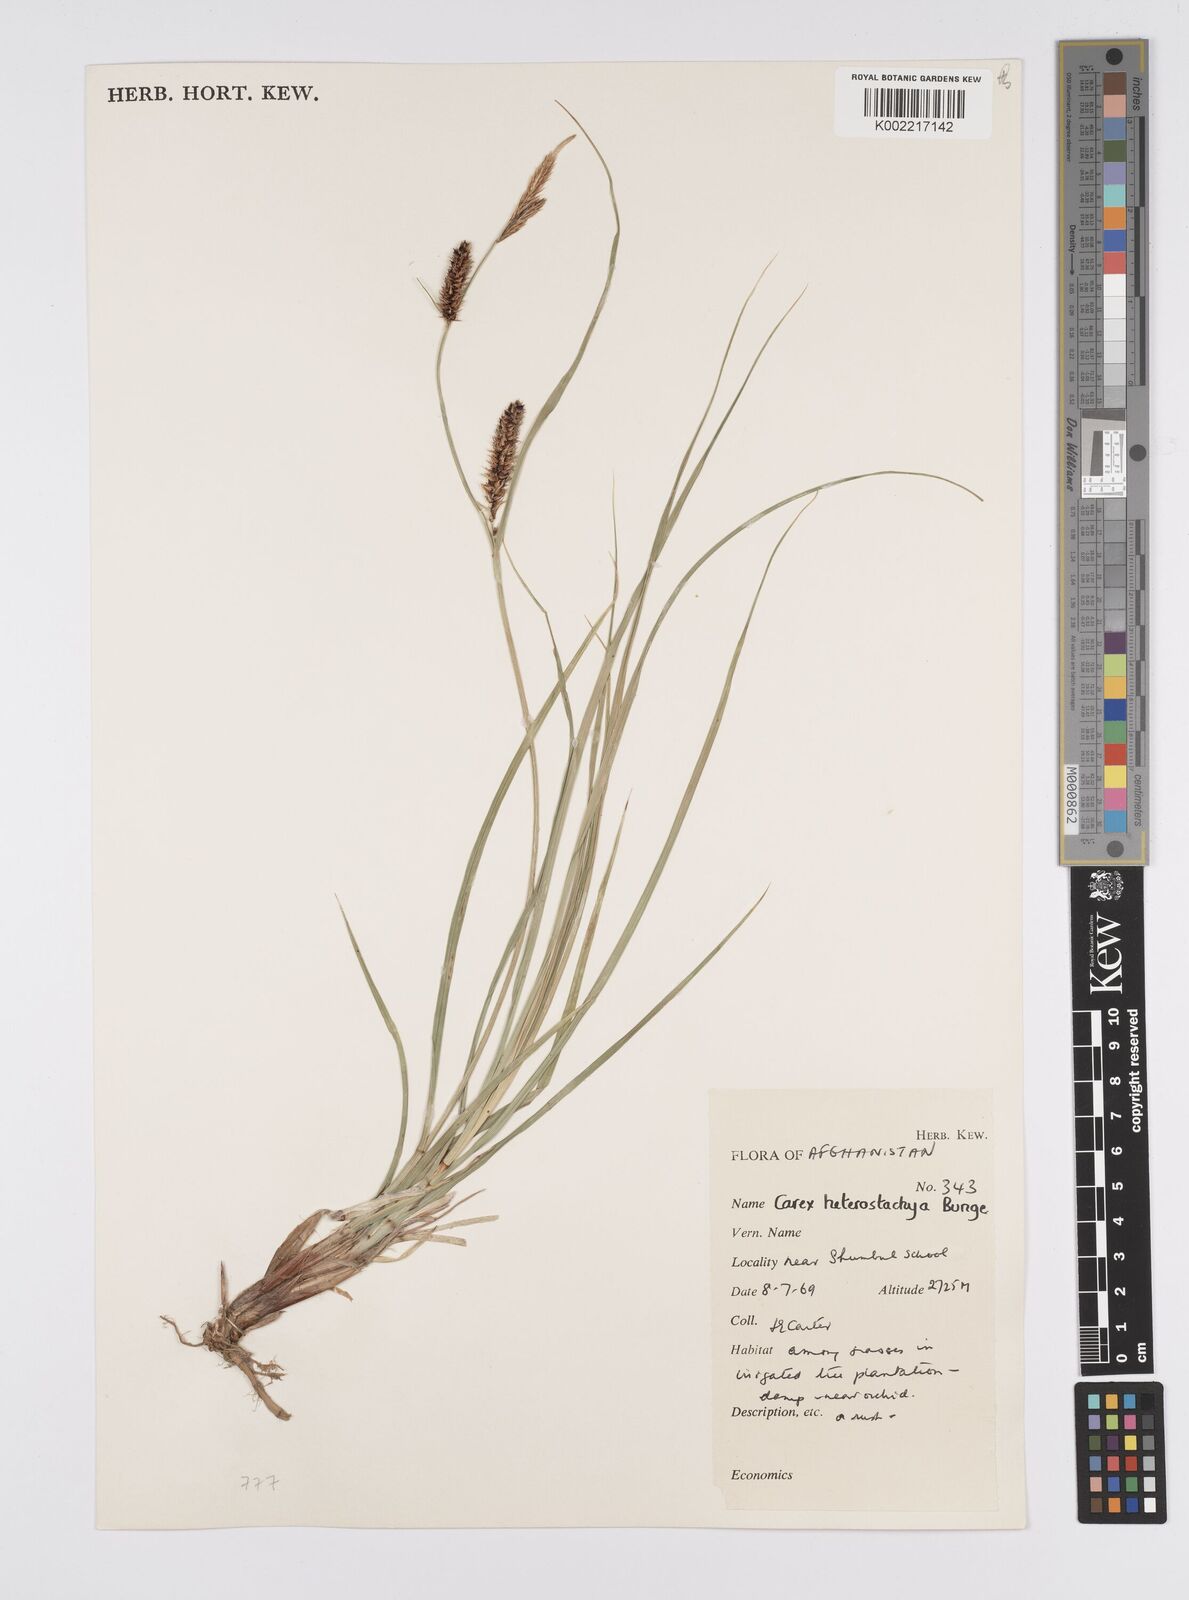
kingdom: Plantae
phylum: Tracheophyta
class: Liliopsida
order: Poales
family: Cyperaceae
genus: Carex
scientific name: Carex heterostachya
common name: Different-spike sedge
